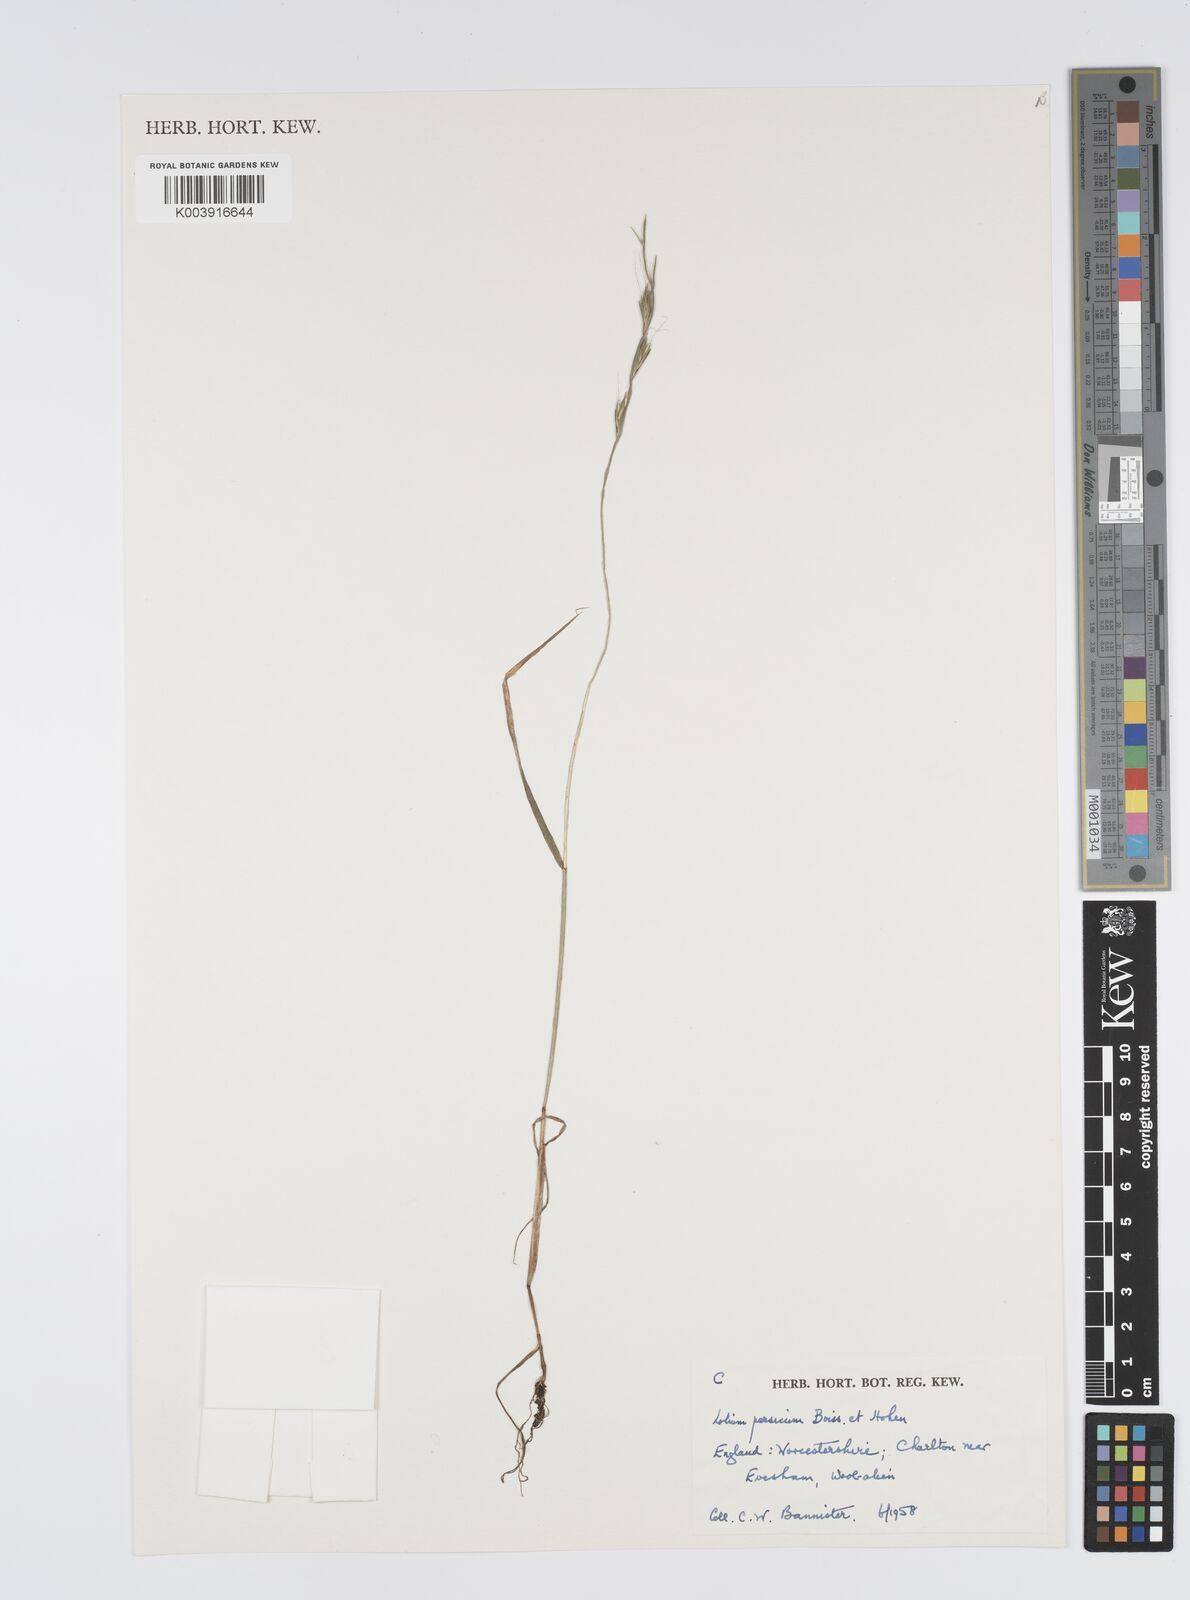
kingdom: Plantae
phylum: Tracheophyta
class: Liliopsida
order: Poales
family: Poaceae
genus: Lolium
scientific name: Lolium persicum
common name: Persian ryegrass
